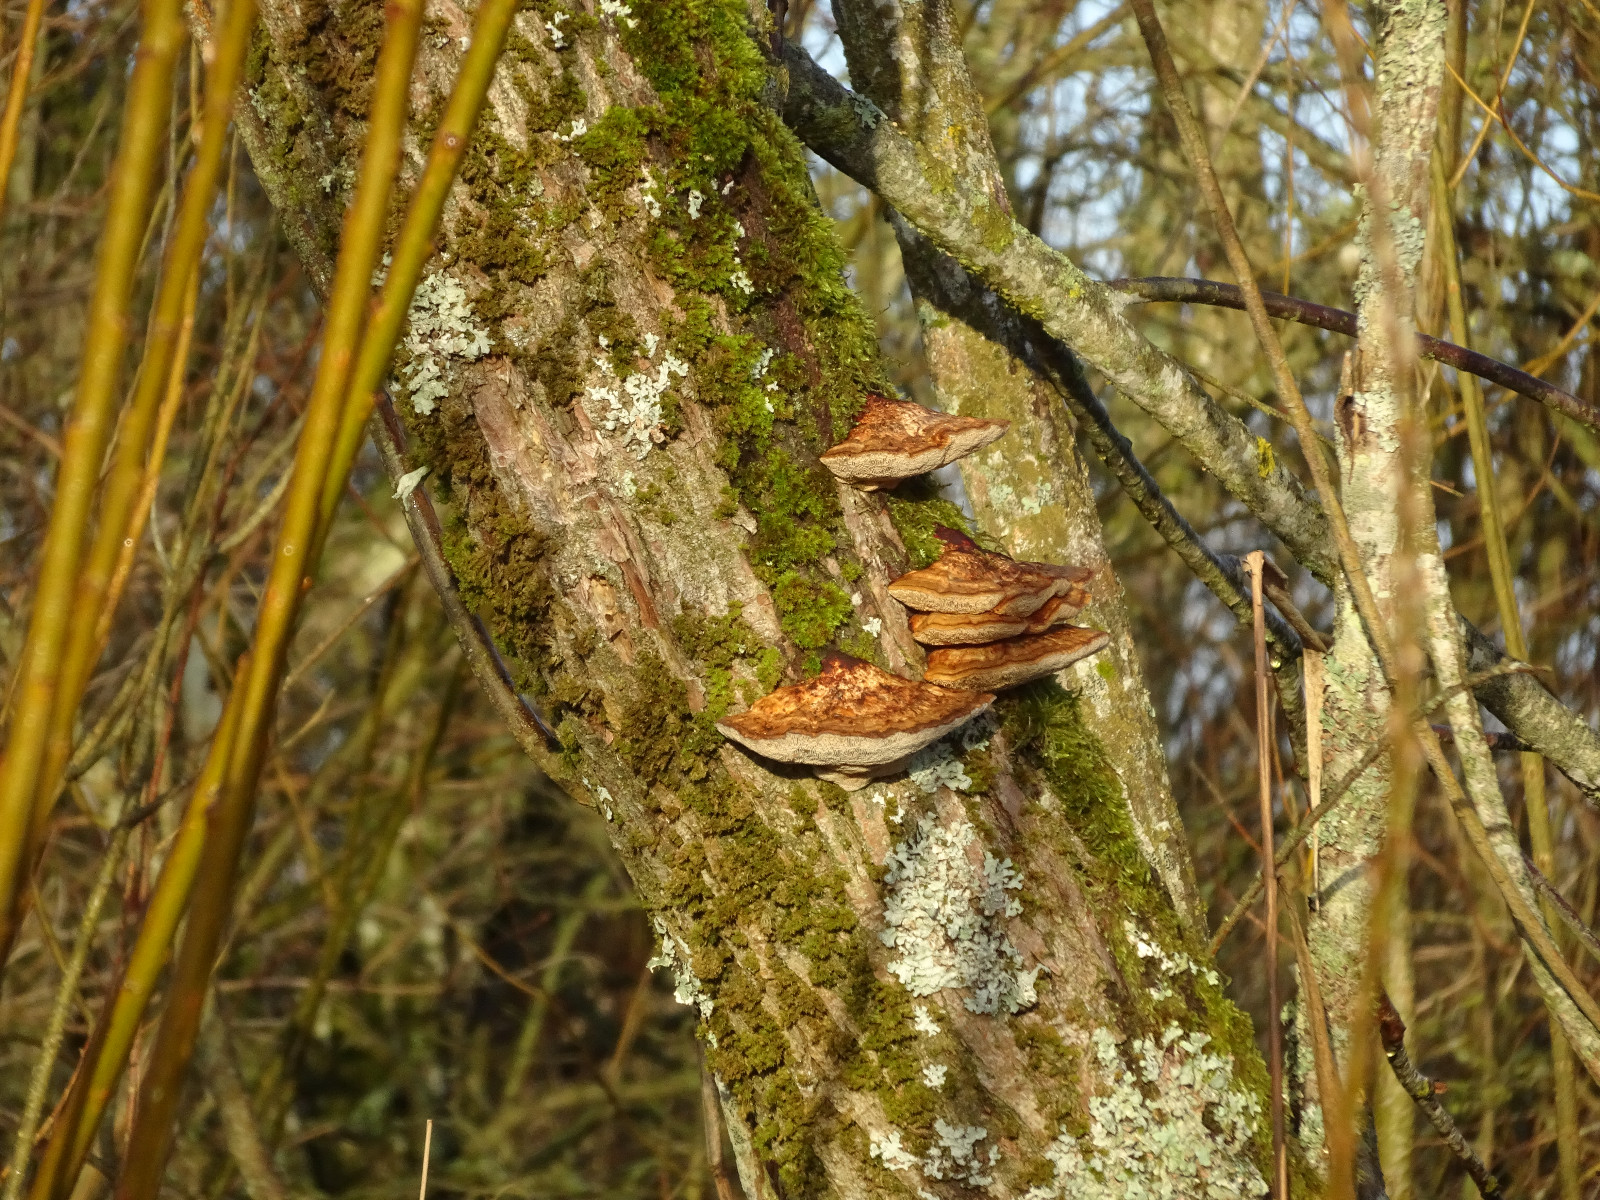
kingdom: Fungi
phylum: Basidiomycota
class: Agaricomycetes
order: Polyporales
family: Polyporaceae
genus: Daedaleopsis
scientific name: Daedaleopsis confragosa
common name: rødmende læderporesvamp
